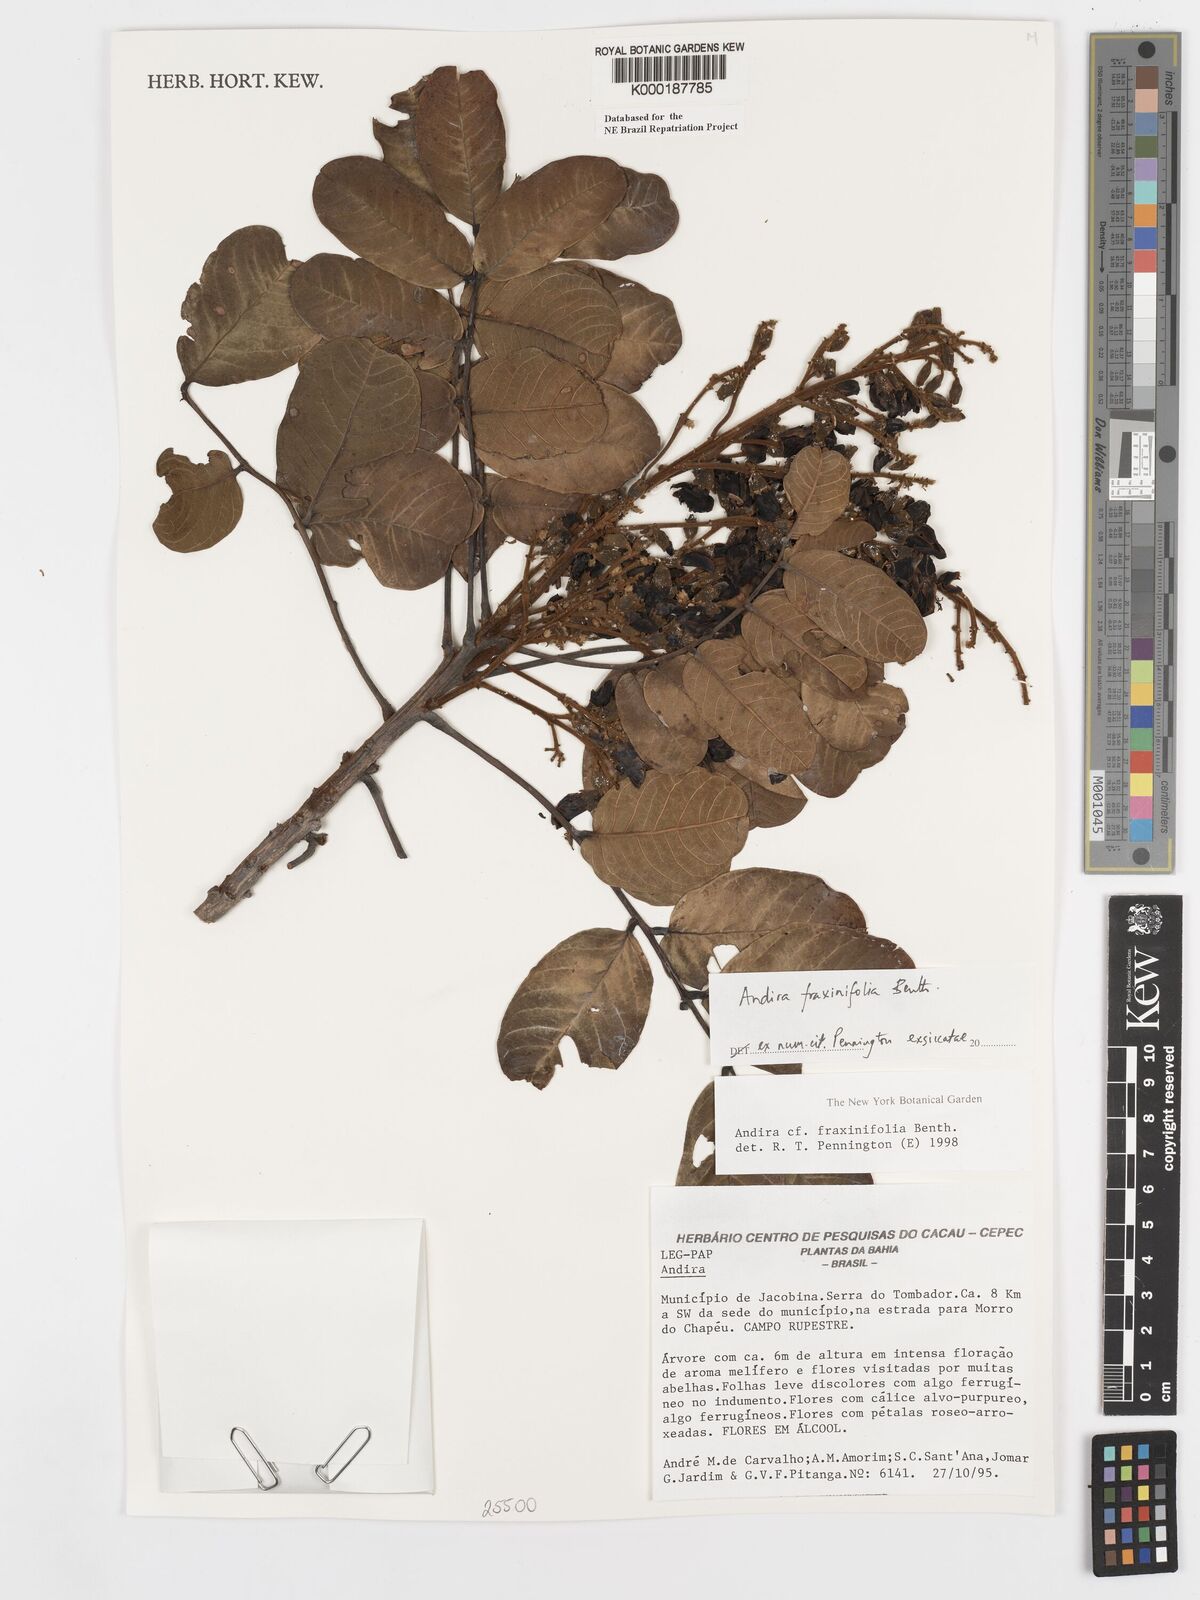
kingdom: Plantae
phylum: Tracheophyta
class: Magnoliopsida
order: Fabales
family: Fabaceae
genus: Andira
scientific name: Andira fraxinifolia
